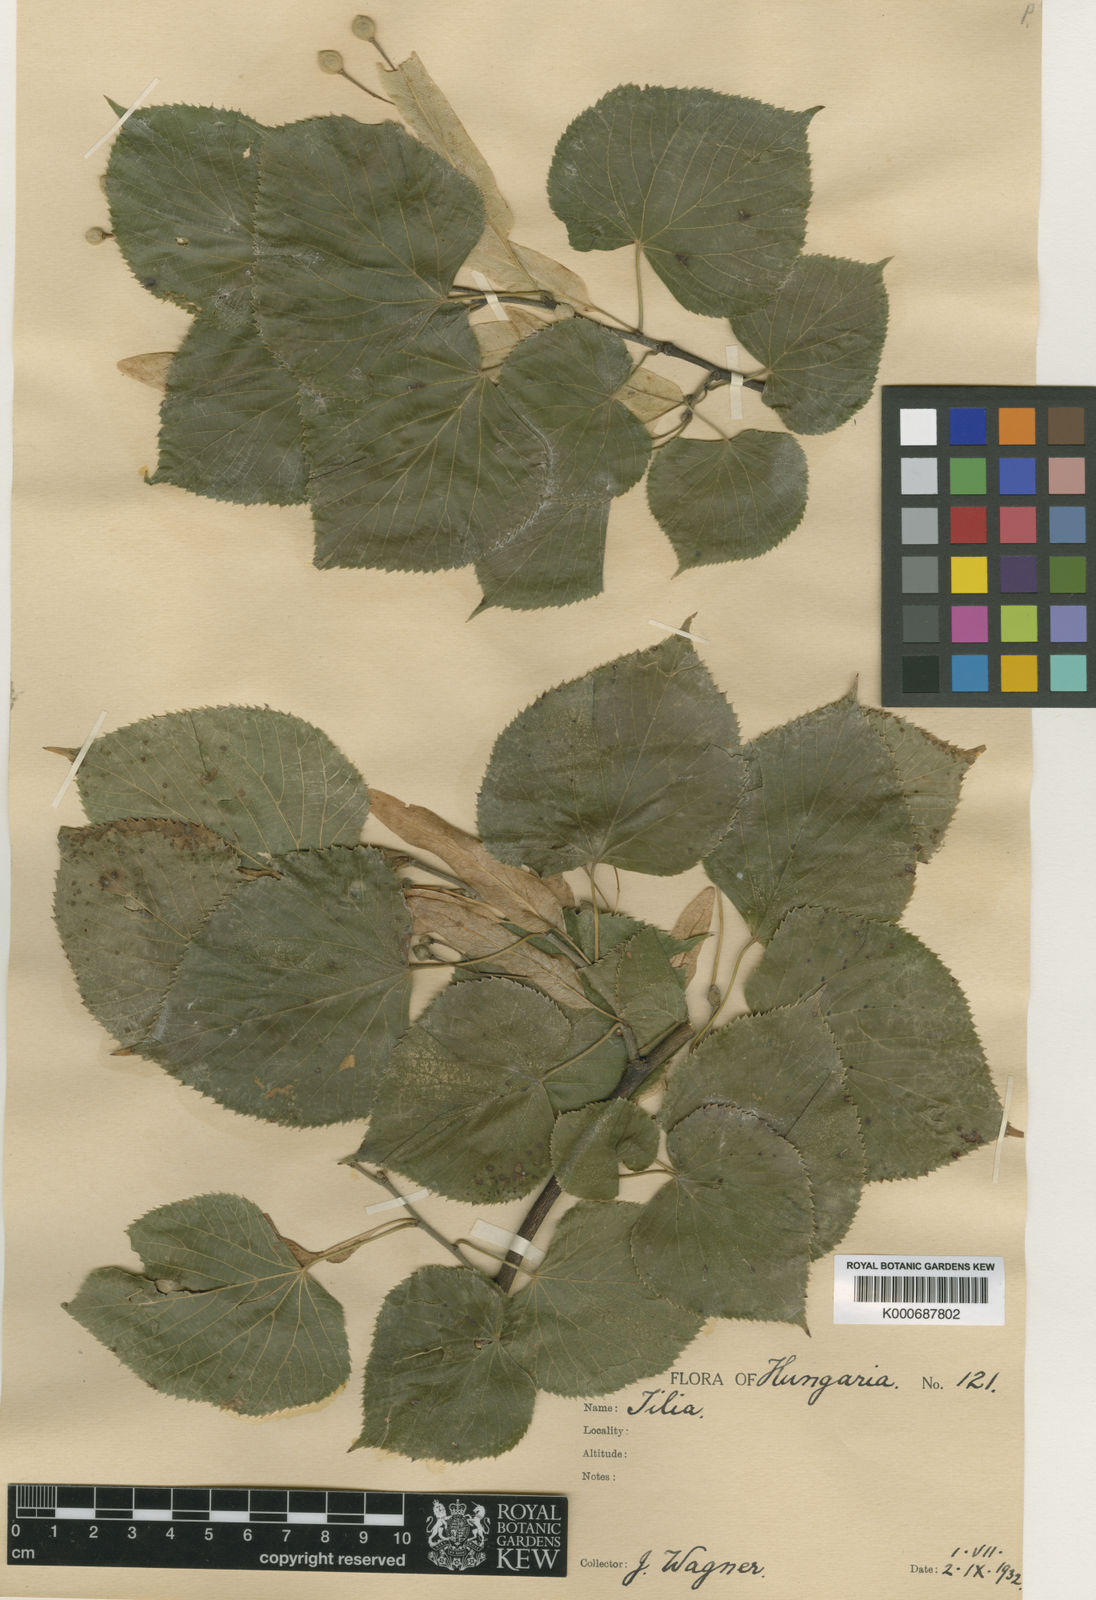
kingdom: Plantae
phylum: Tracheophyta
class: Magnoliopsida
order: Malvales
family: Malvaceae
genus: Tilia
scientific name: Tilia
